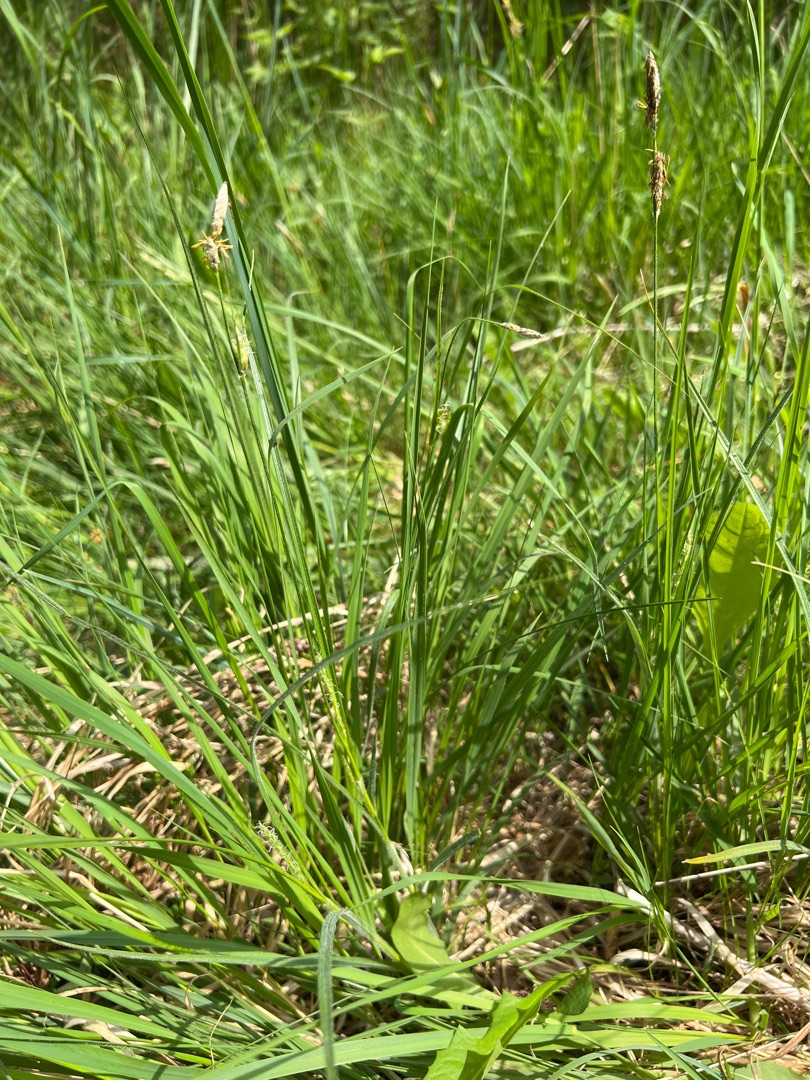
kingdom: Plantae
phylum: Tracheophyta
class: Liliopsida
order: Poales
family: Cyperaceae
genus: Carex
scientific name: Carex hirta
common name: Håret star
